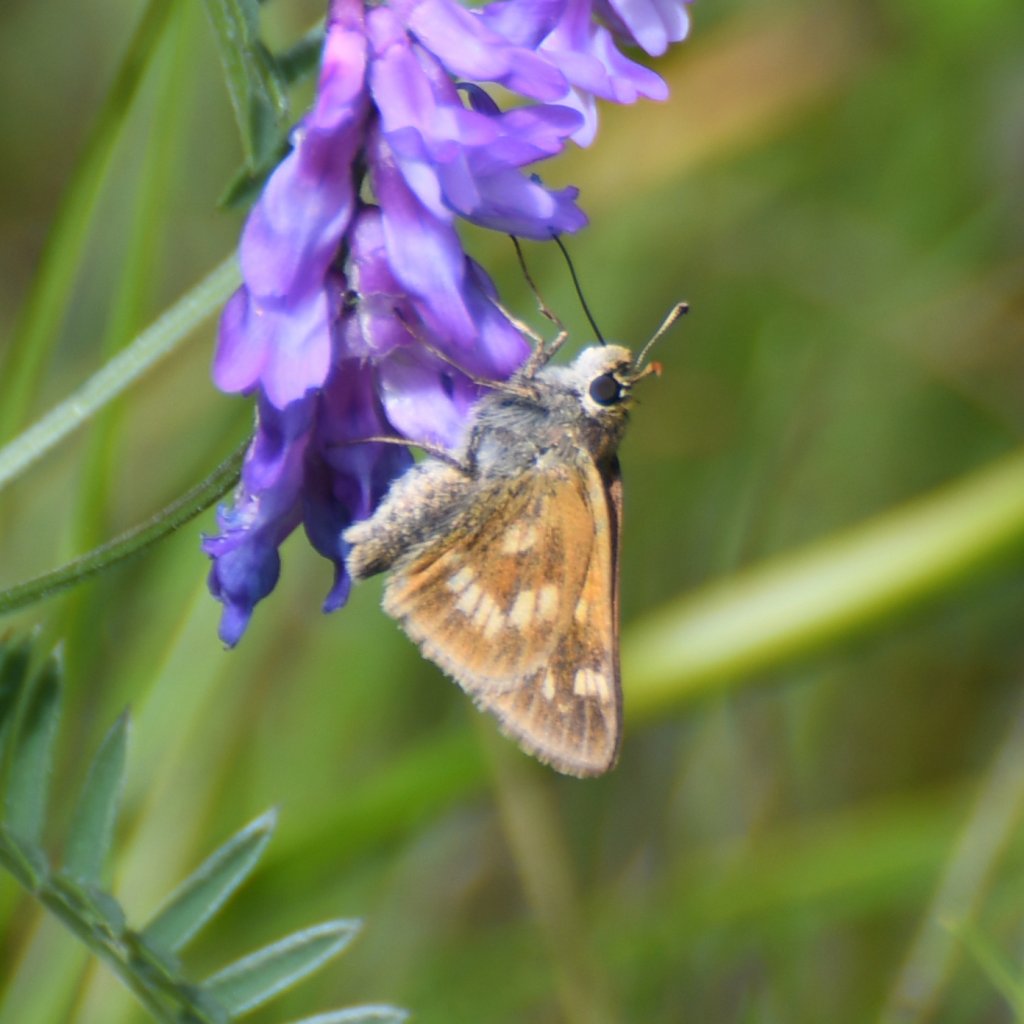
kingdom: Animalia
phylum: Arthropoda
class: Insecta
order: Lepidoptera
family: Hesperiidae
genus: Polites
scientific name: Polites
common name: Long Dash Skipper
